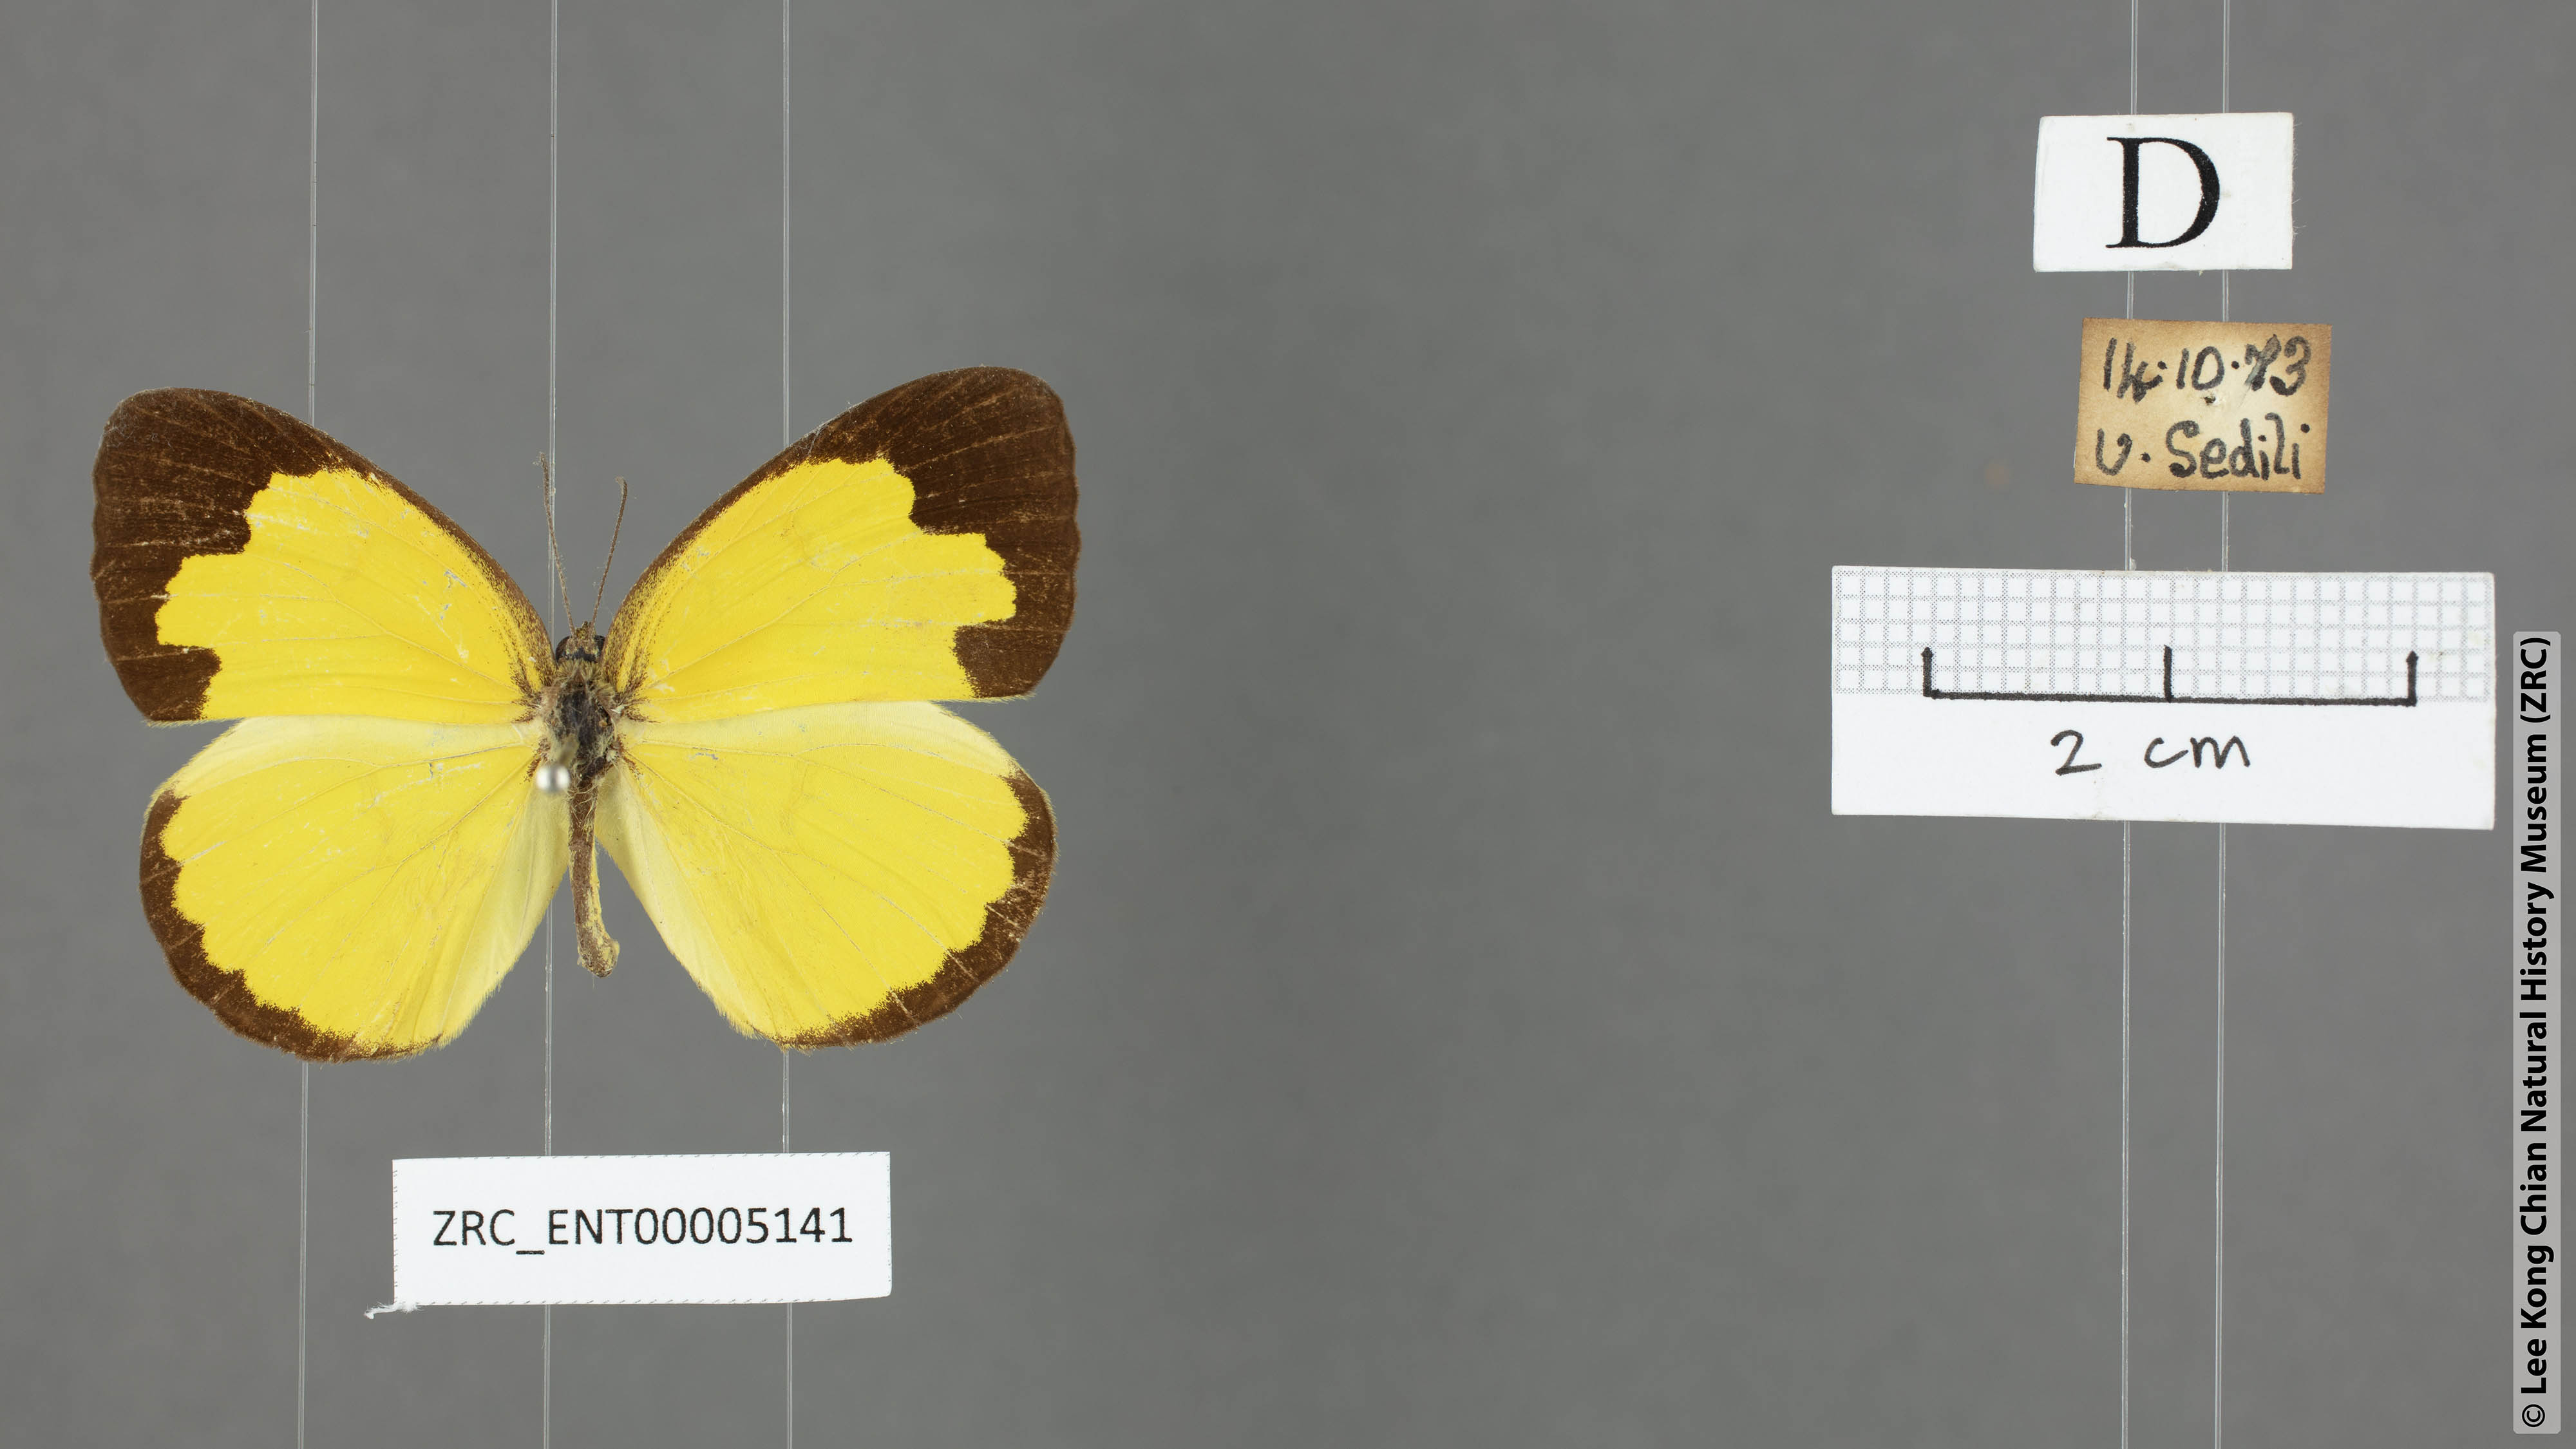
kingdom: Animalia
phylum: Arthropoda
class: Insecta
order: Lepidoptera
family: Pieridae
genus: Eurema
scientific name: Eurema simulatrix
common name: Hill grass yellow
